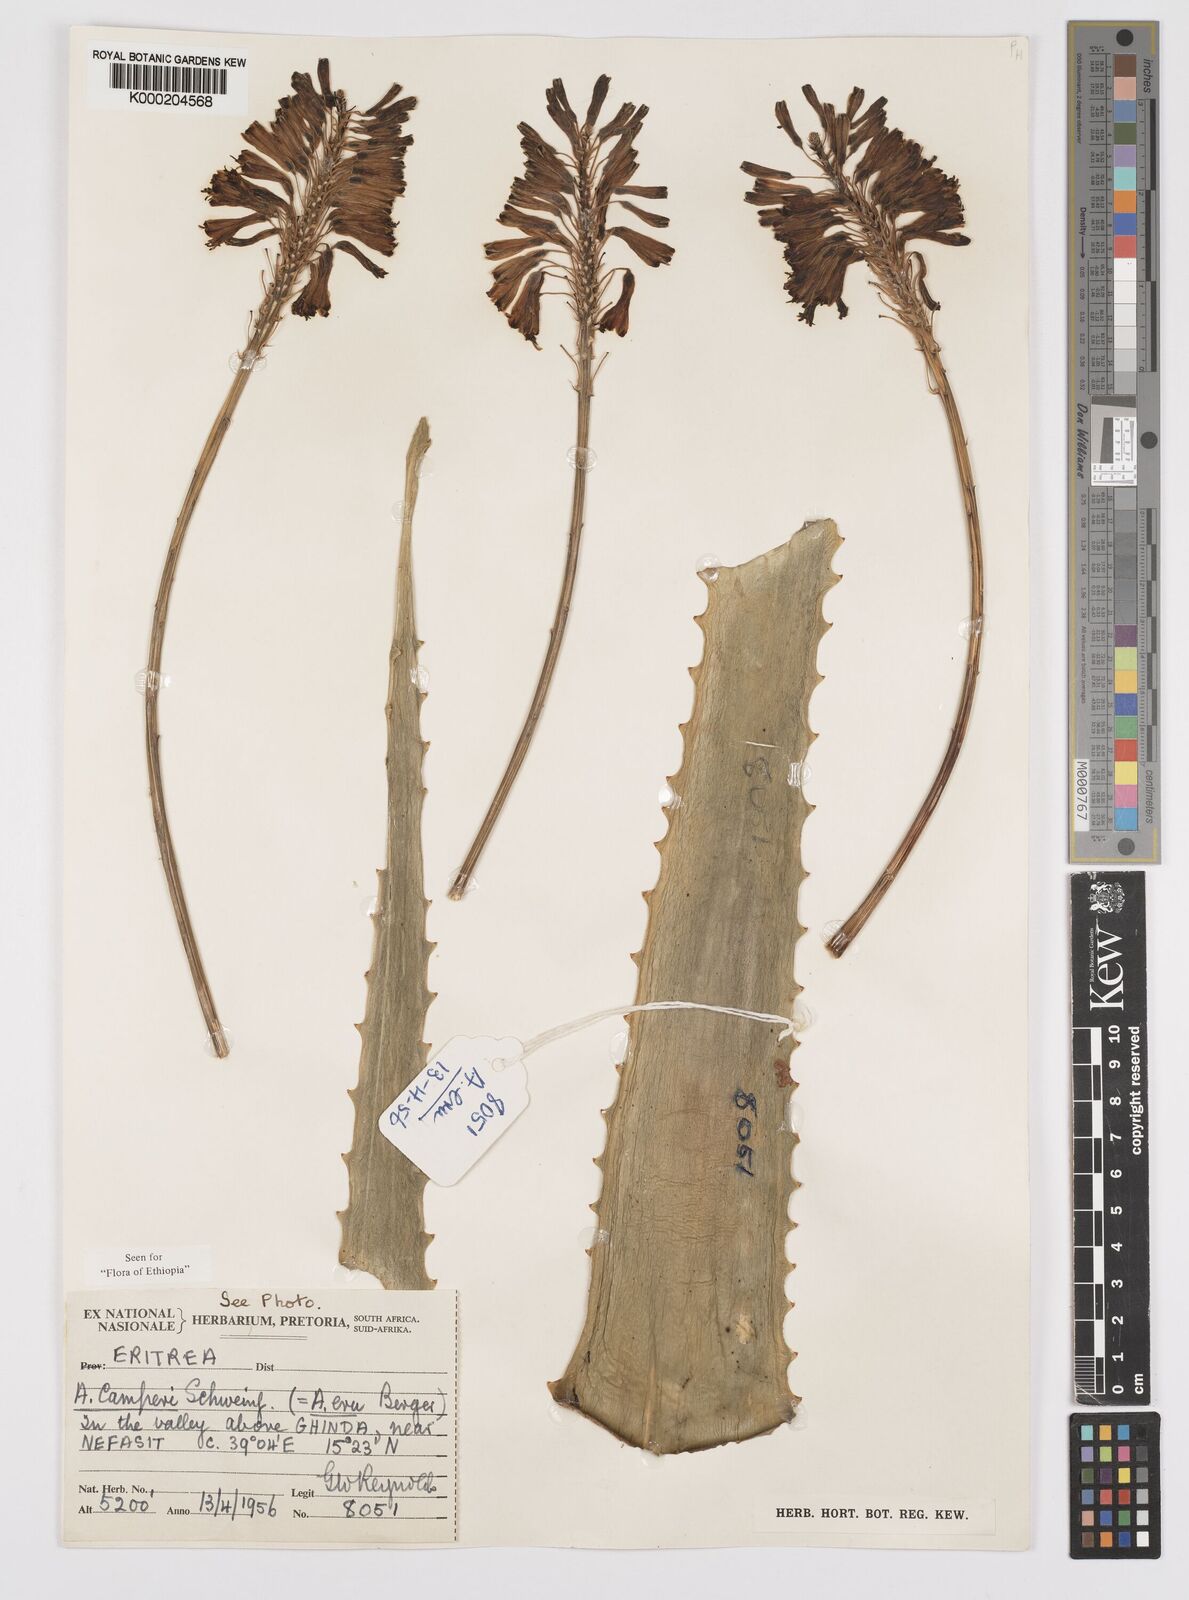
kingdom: Plantae
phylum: Tracheophyta
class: Liliopsida
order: Asparagales
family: Asphodelaceae
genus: Aloe
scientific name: Aloe camperi
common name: Camper's aloe
